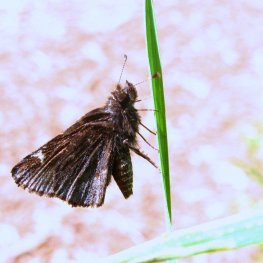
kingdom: Animalia
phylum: Arthropoda
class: Insecta
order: Lepidoptera
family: Hesperiidae
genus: Mastor
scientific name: Mastor vialis
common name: Common Roadside-Skipper
